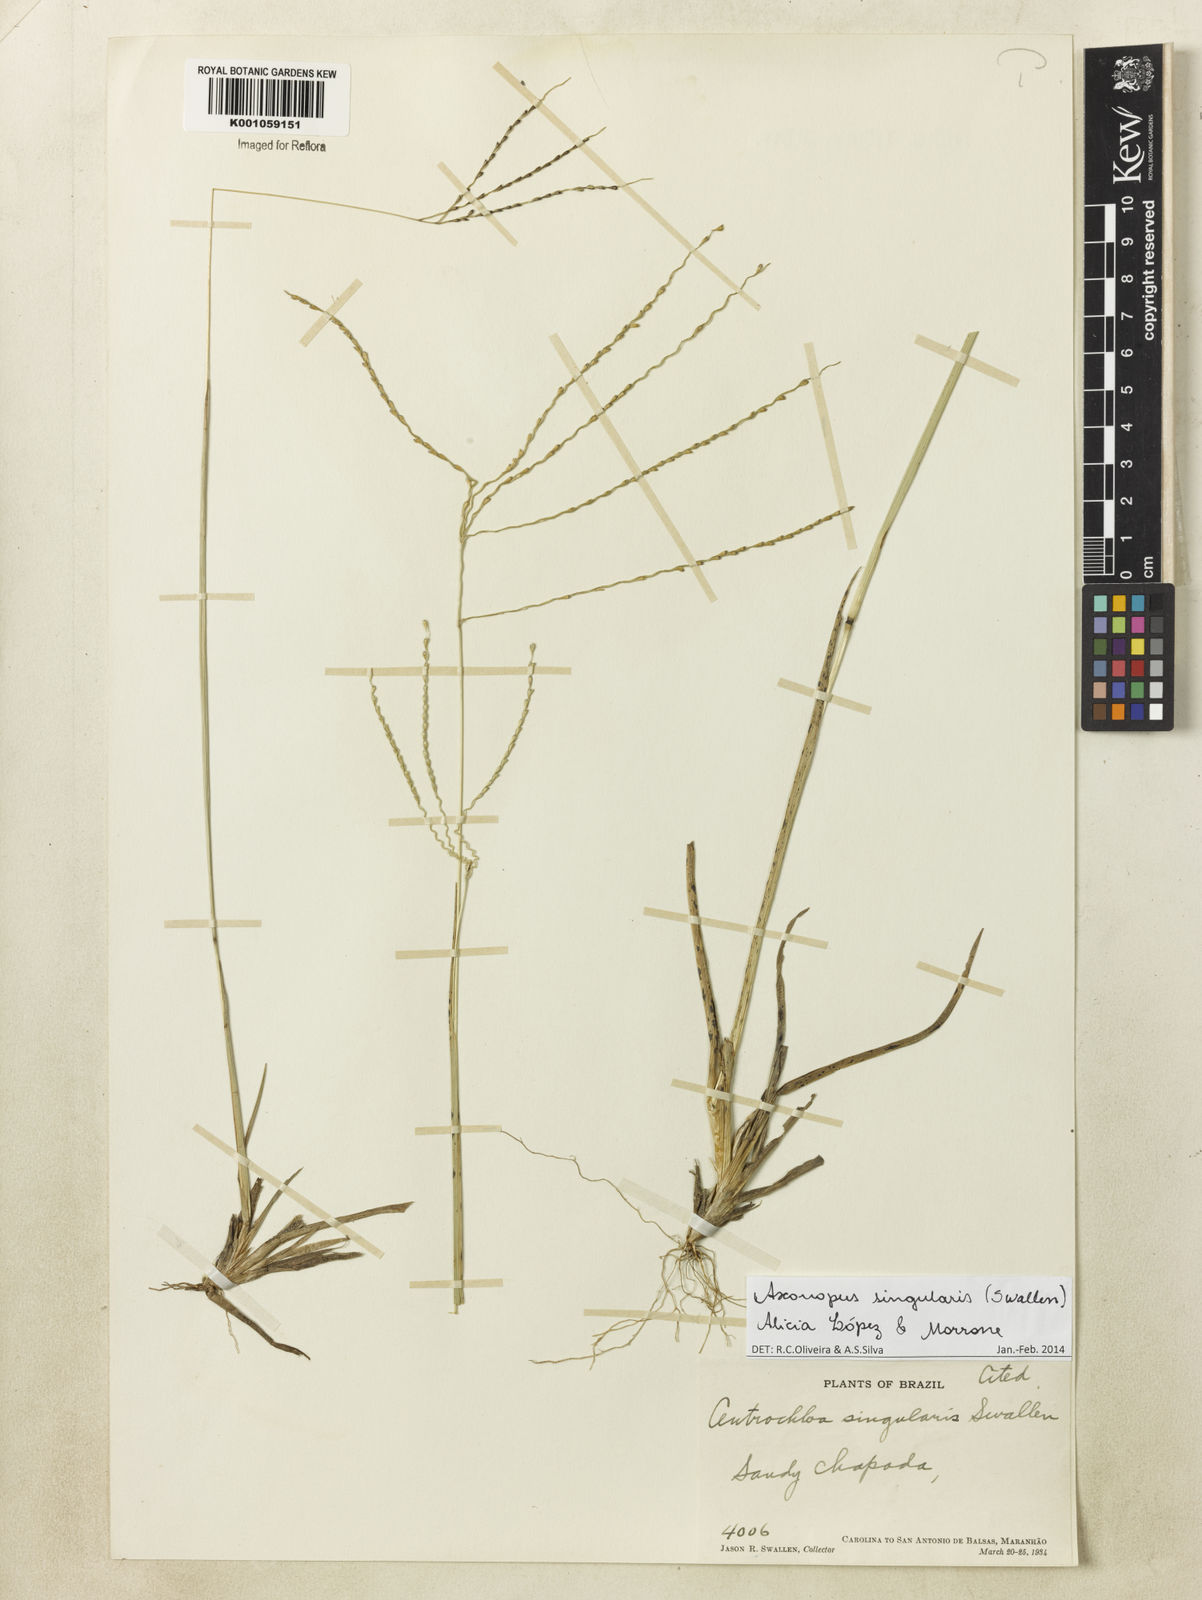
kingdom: Plantae
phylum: Tracheophyta
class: Liliopsida
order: Poales
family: Poaceae
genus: Axonopus
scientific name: Axonopus
